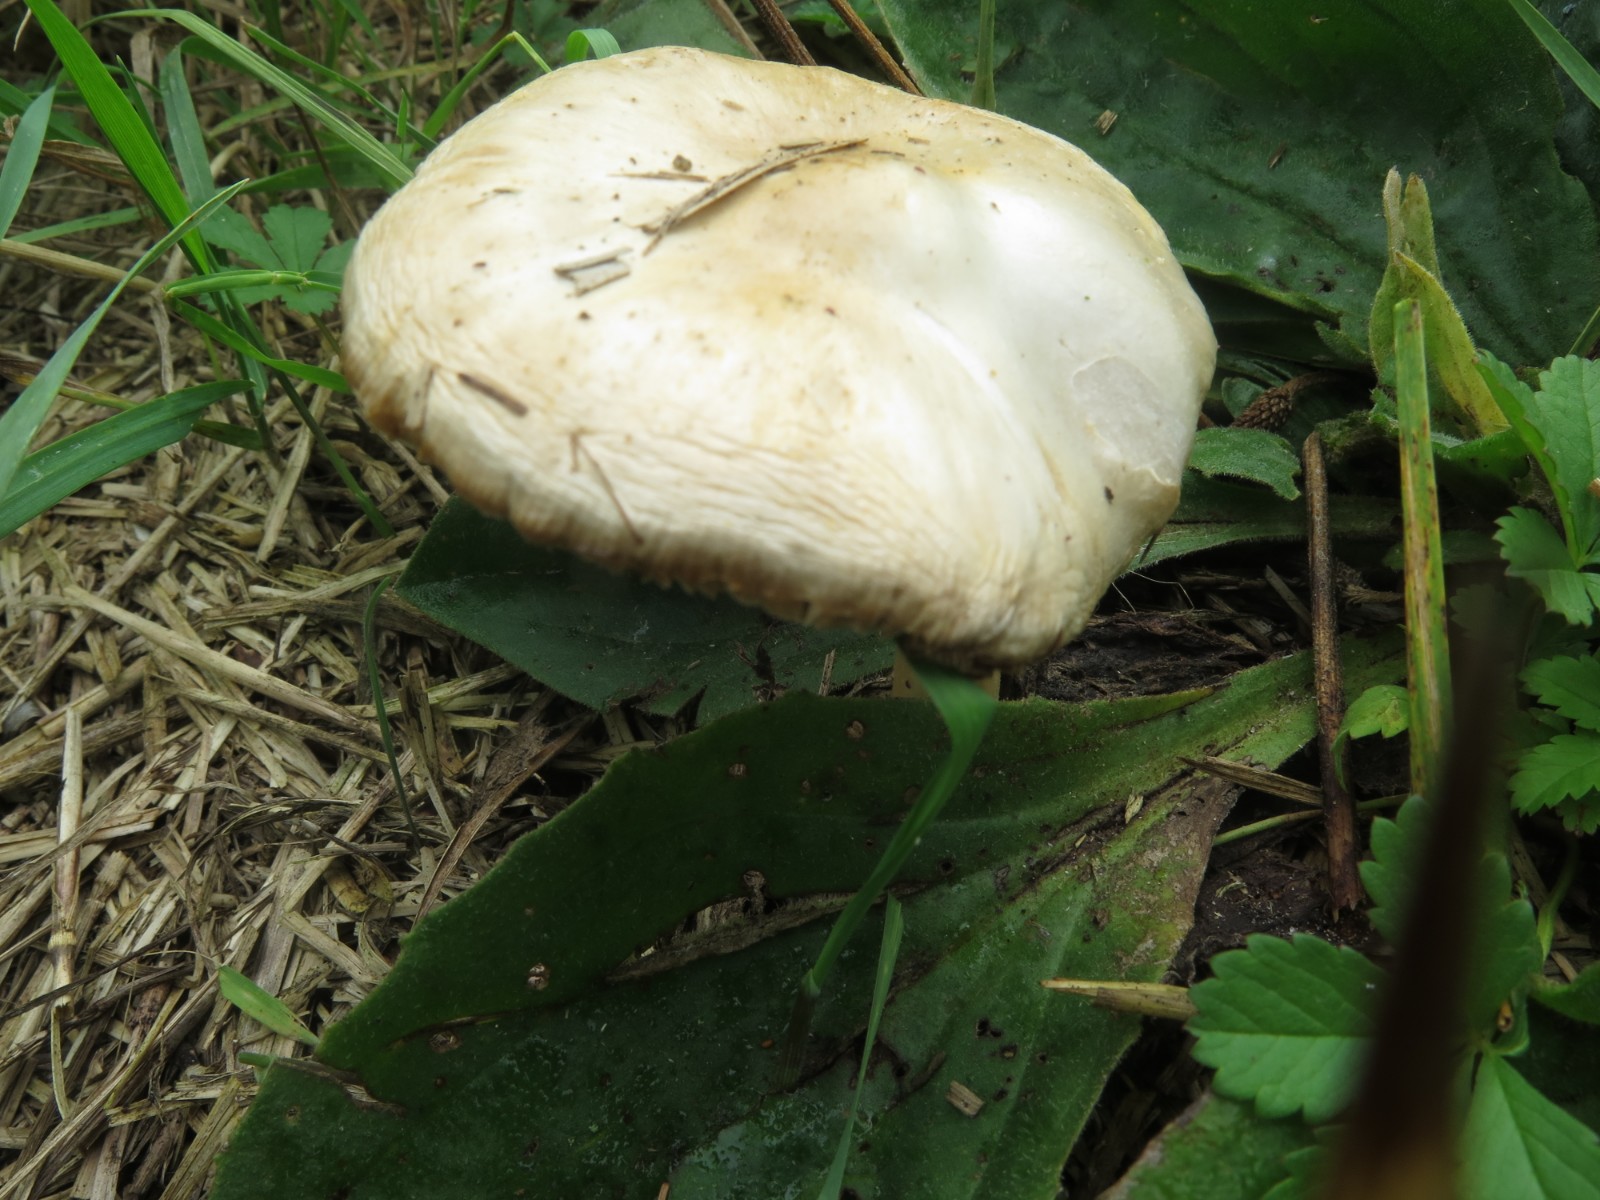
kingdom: Fungi
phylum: Basidiomycota
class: Agaricomycetes
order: Agaricales
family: Pluteaceae
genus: Volvopluteus
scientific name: Volvopluteus gloiocephalus
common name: høj posesvamp
